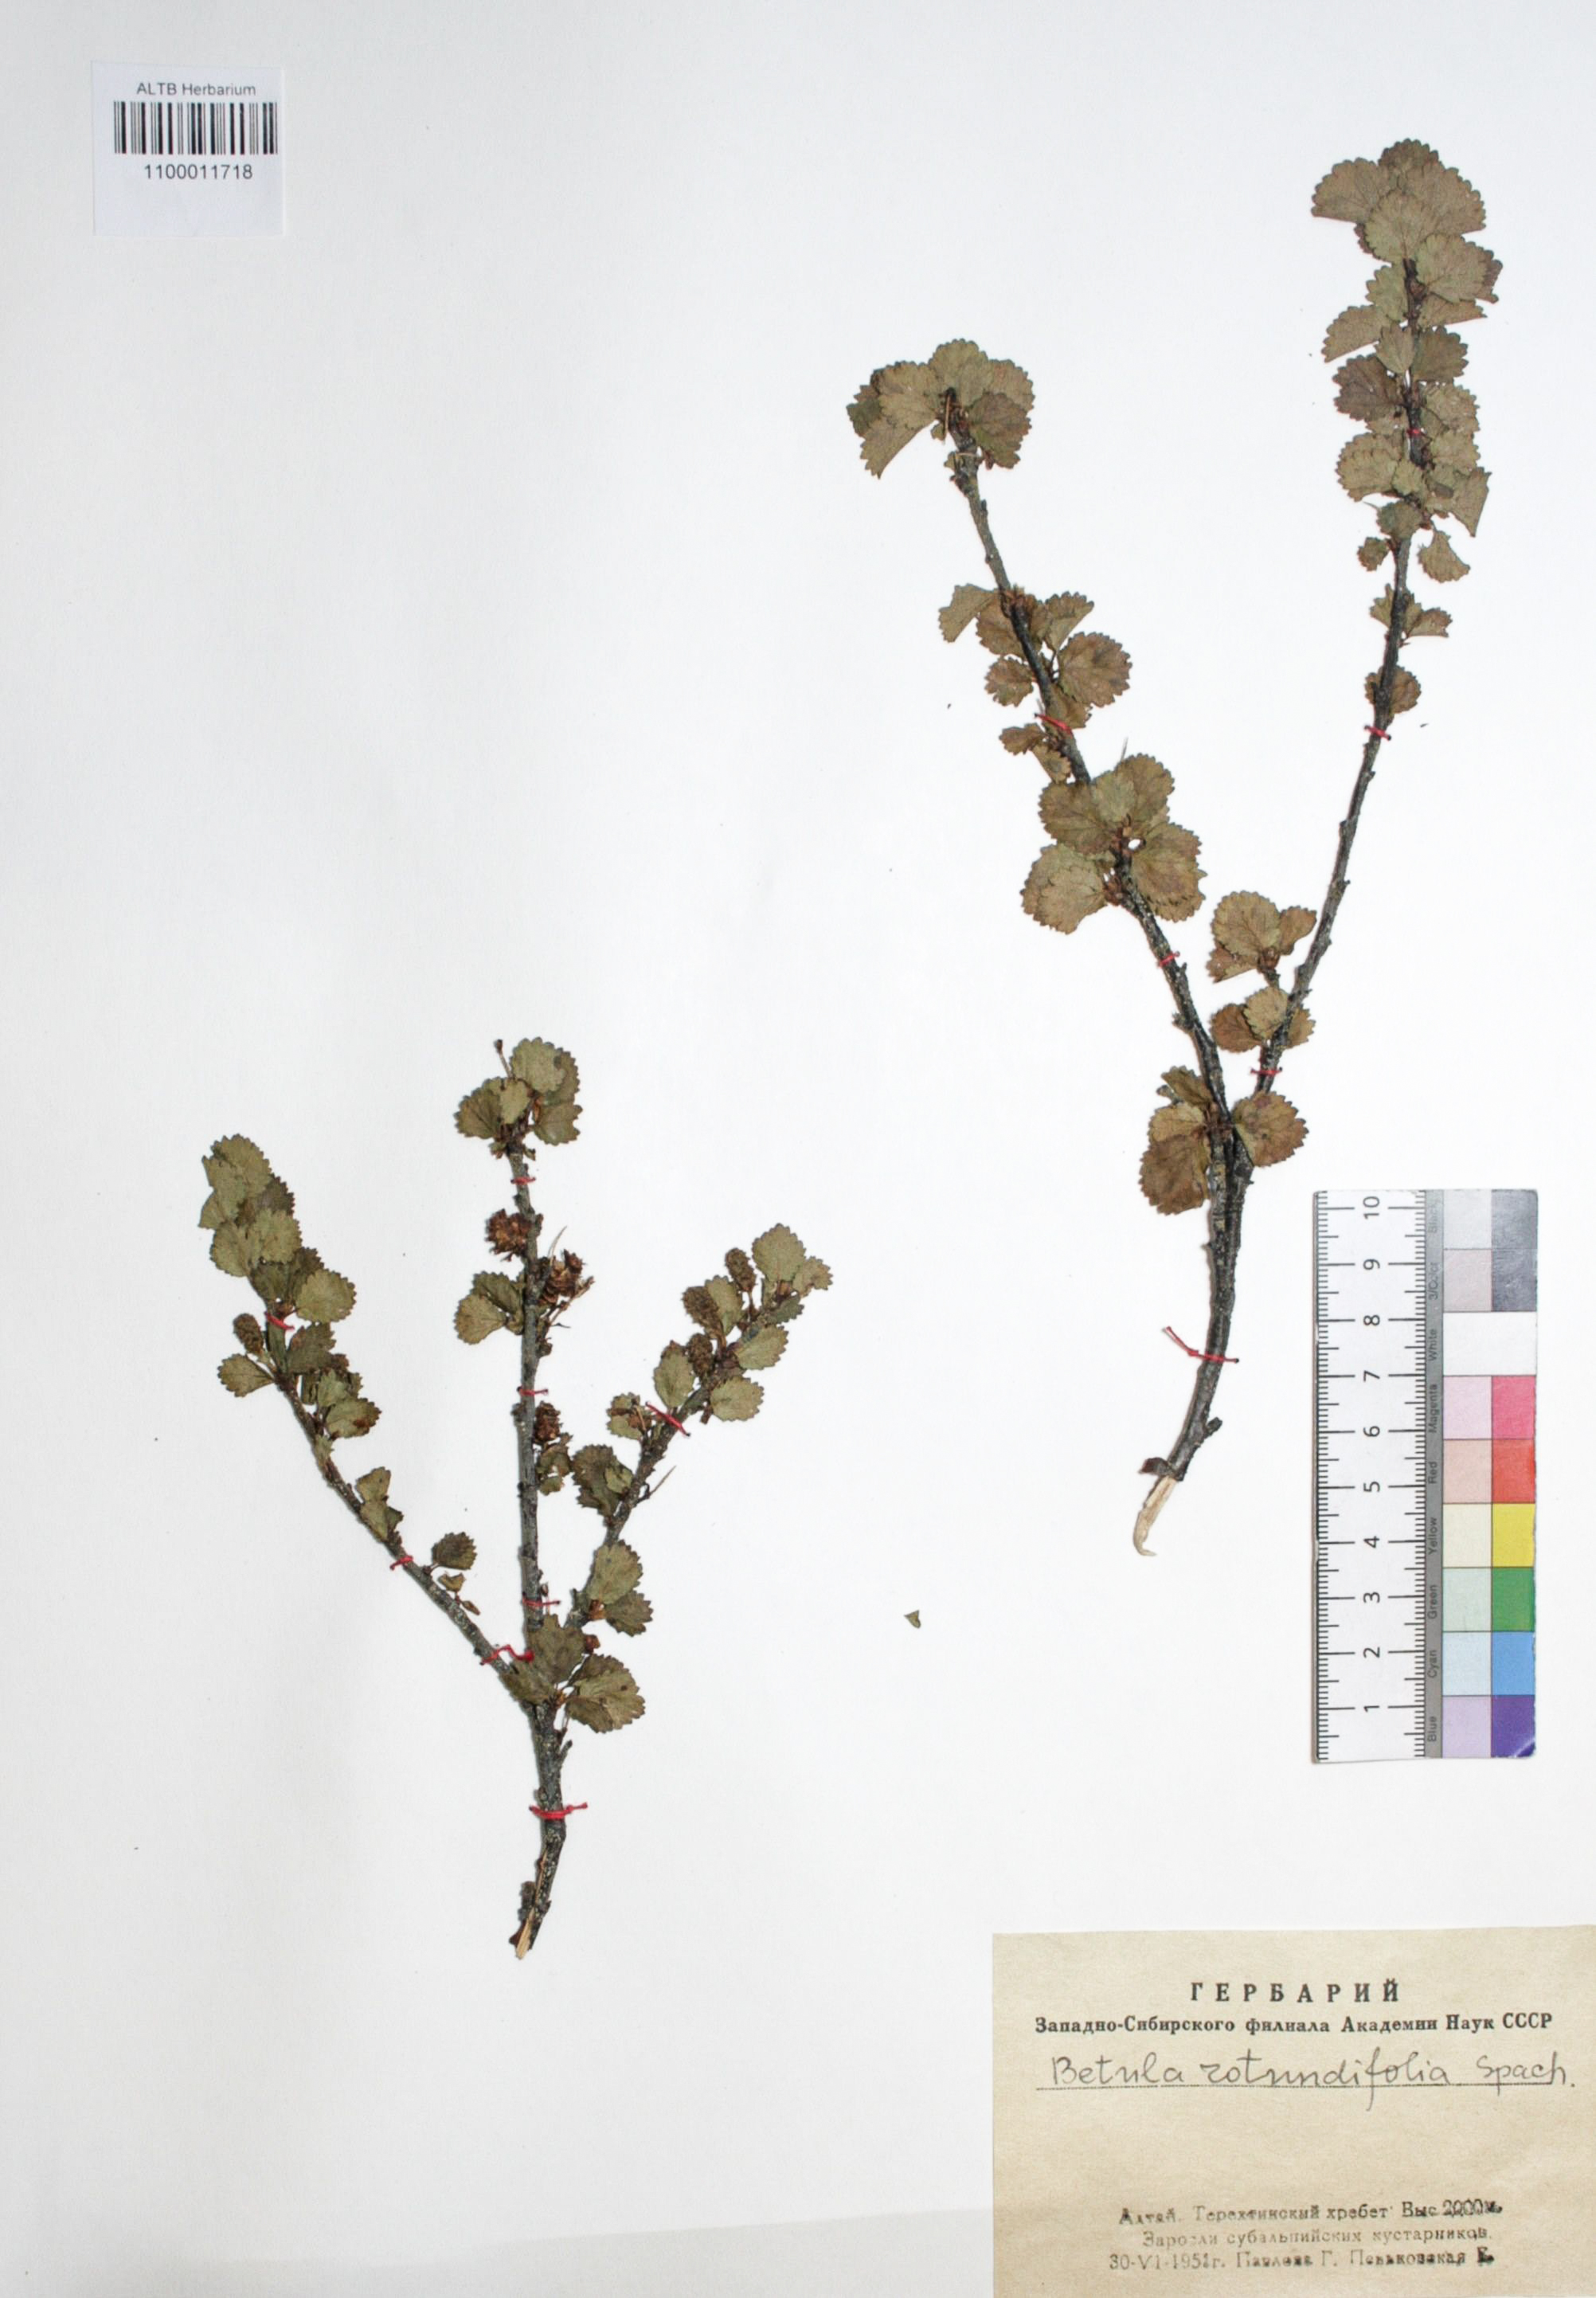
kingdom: Plantae
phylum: Tracheophyta
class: Magnoliopsida
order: Fagales
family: Betulaceae
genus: Betula
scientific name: Betula glandulosa
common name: Dwarf birch
